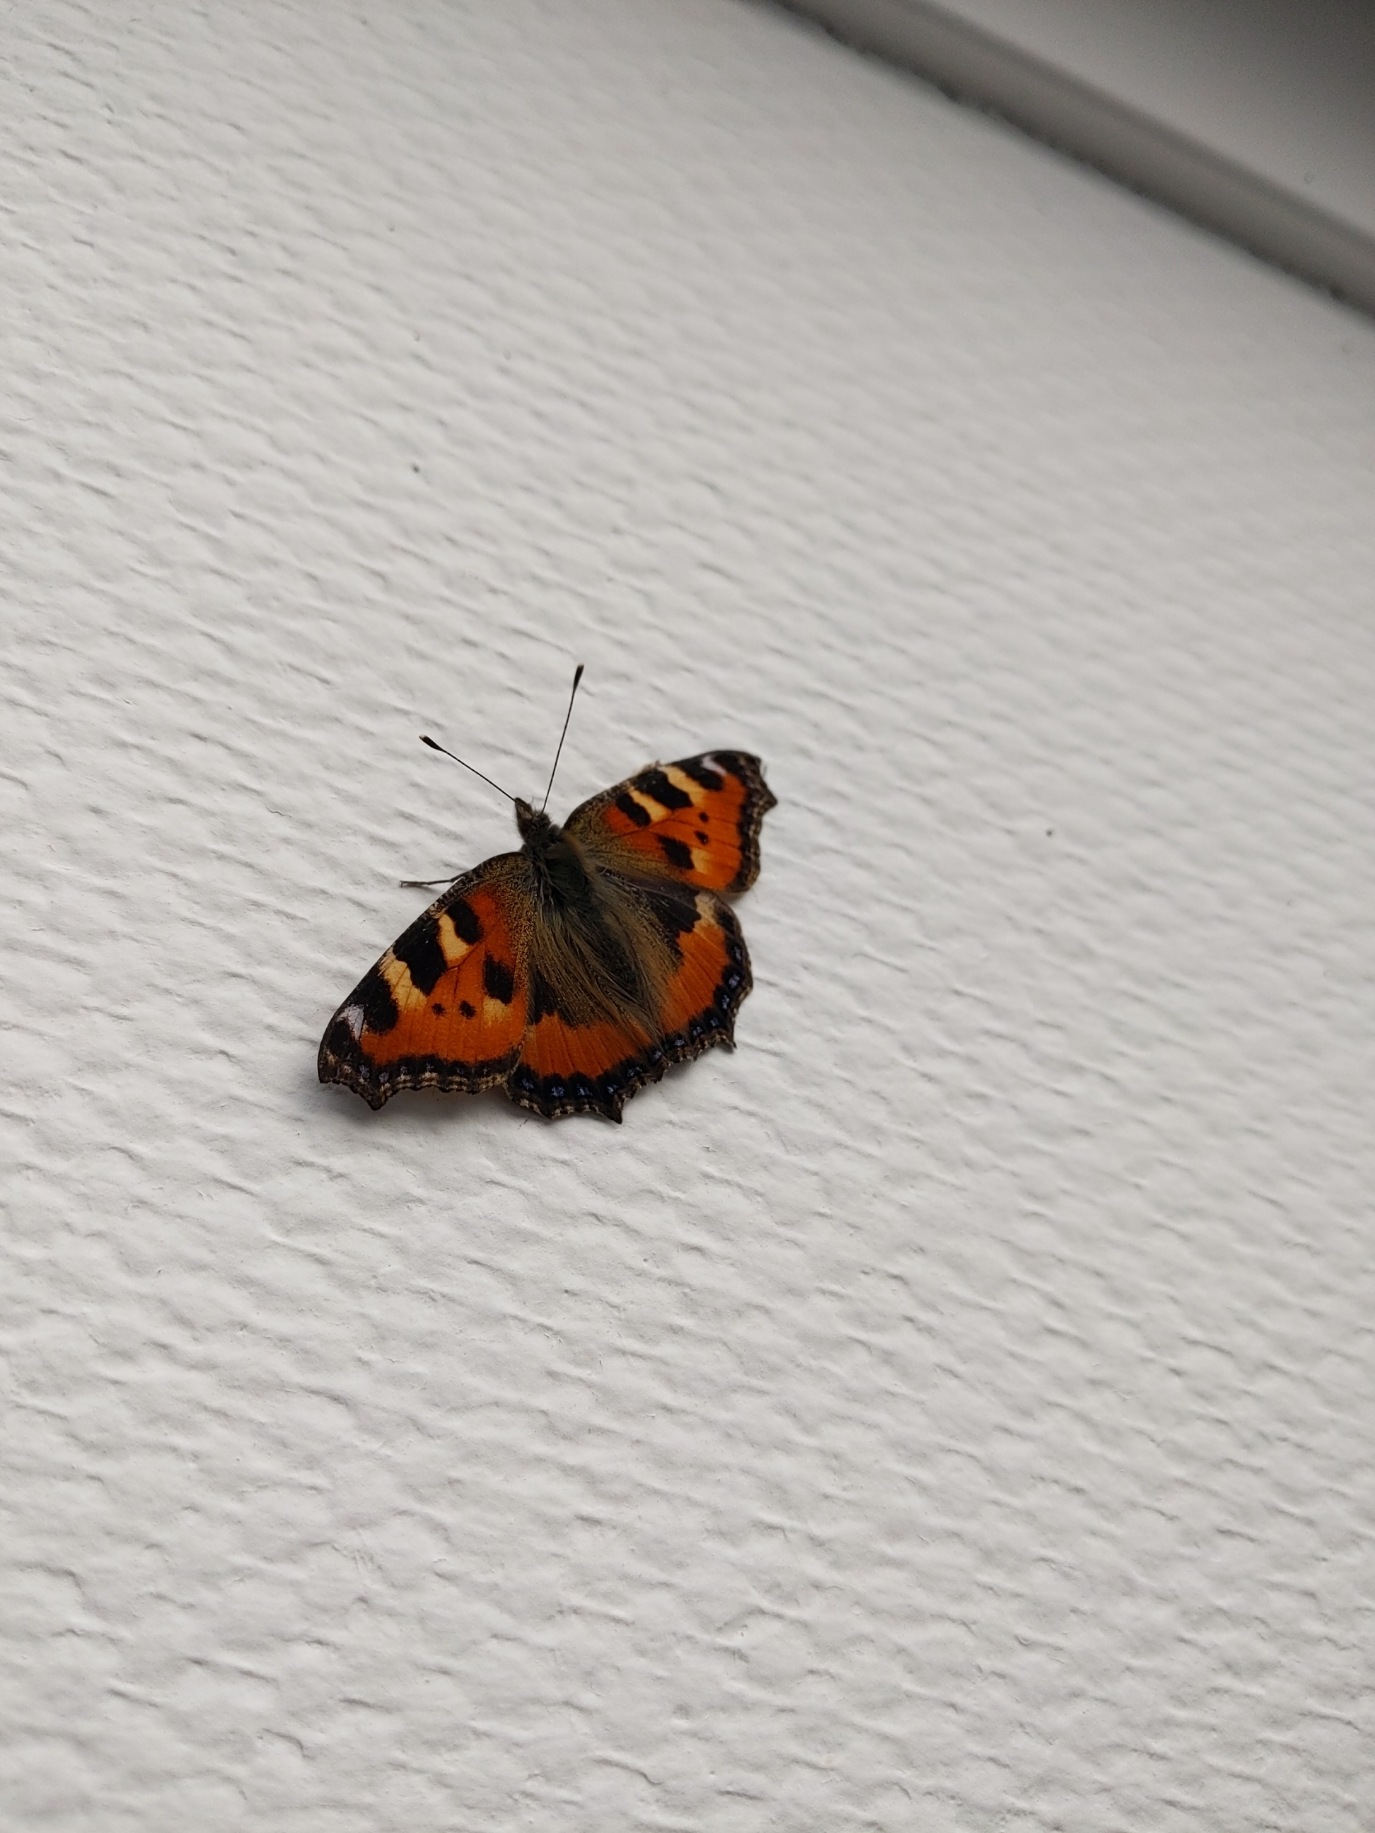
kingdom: Animalia
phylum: Arthropoda
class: Insecta
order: Lepidoptera
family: Nymphalidae
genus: Aglais
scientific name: Aglais urticae
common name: Nældens takvinge
